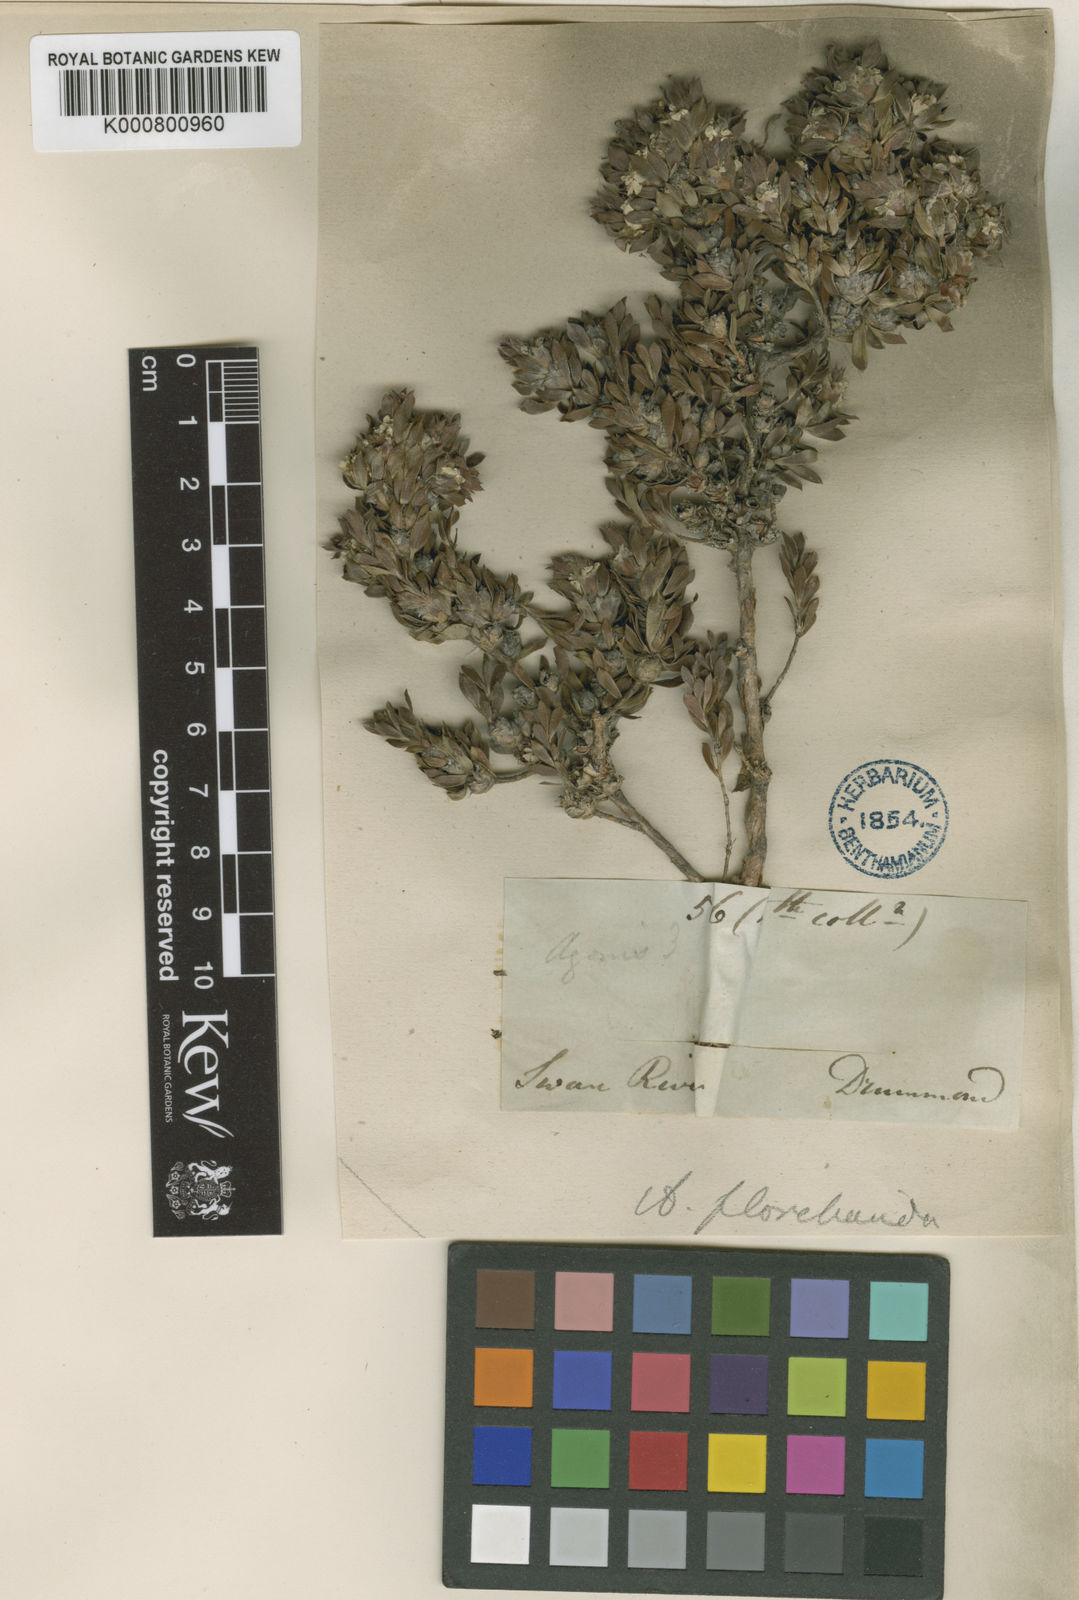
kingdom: Plantae
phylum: Tracheophyta
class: Magnoliopsida
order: Myrtales
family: Myrtaceae
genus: Taxandria
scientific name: Taxandria floribunda
